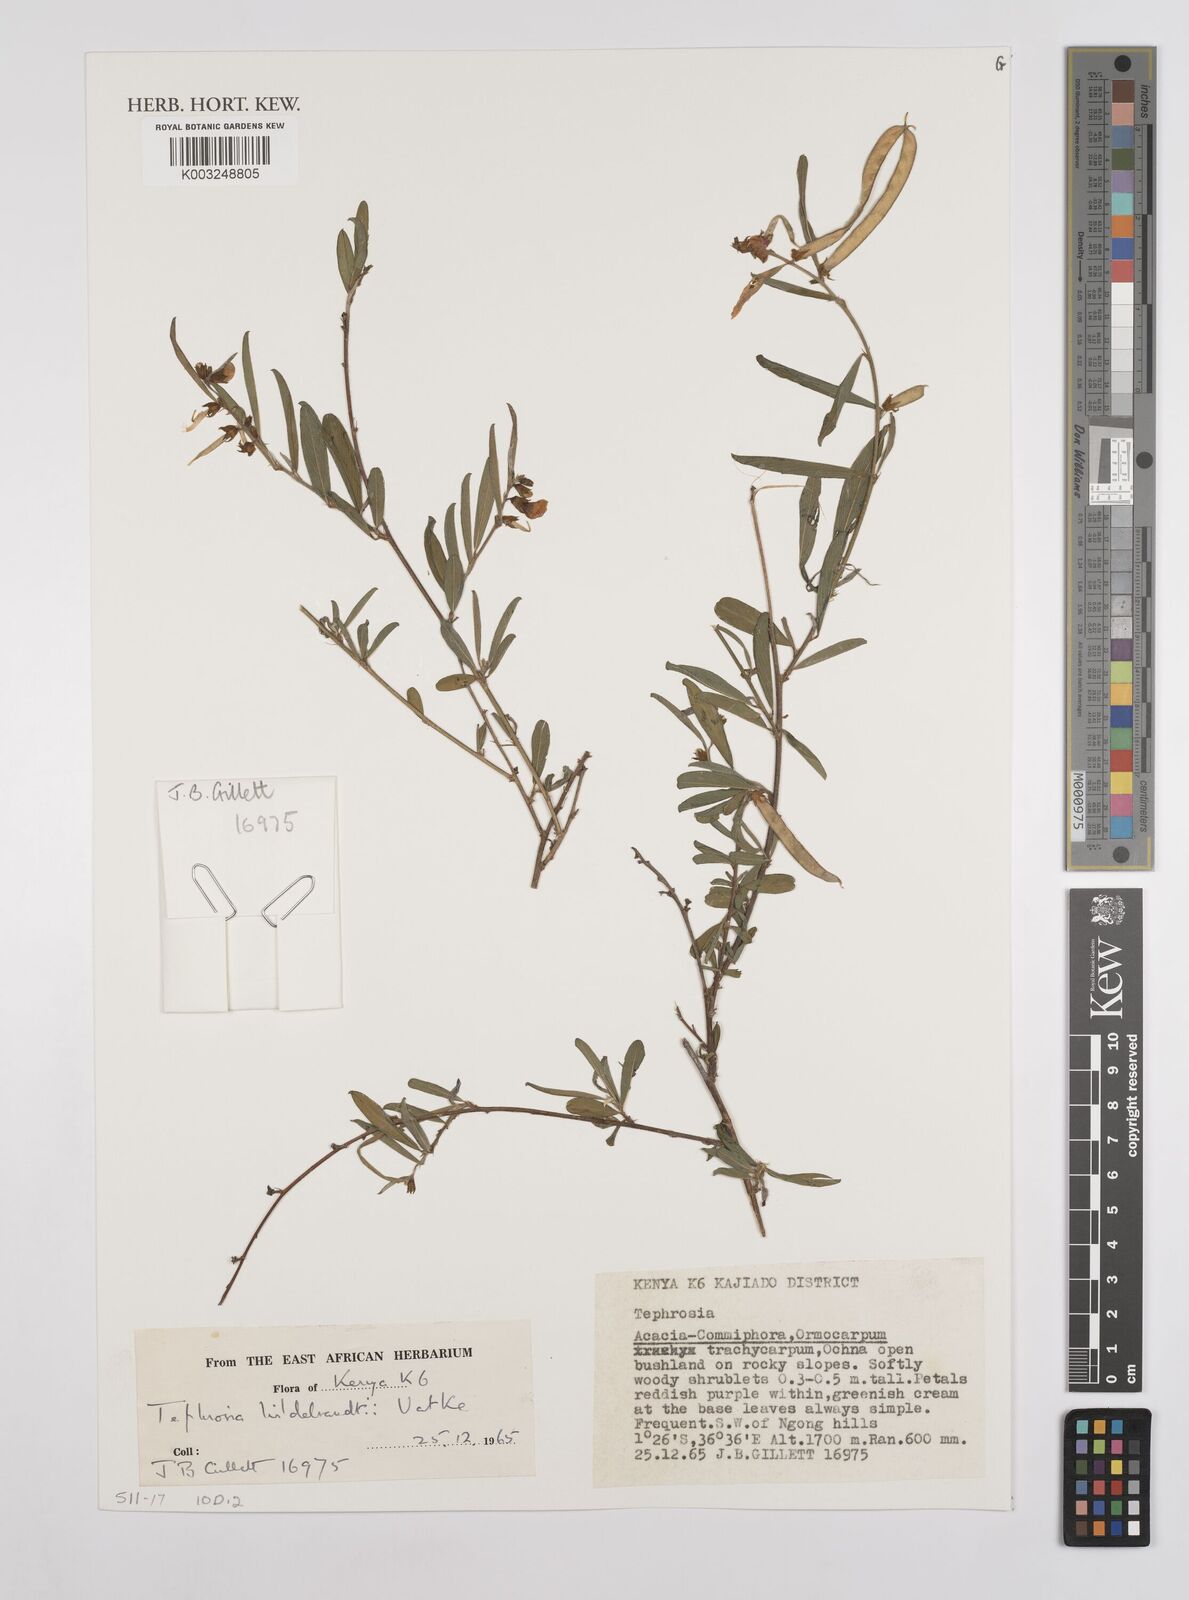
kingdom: Plantae
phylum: Tracheophyta
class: Magnoliopsida
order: Fabales
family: Fabaceae
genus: Tephrosia
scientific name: Tephrosia hildebrandtii
